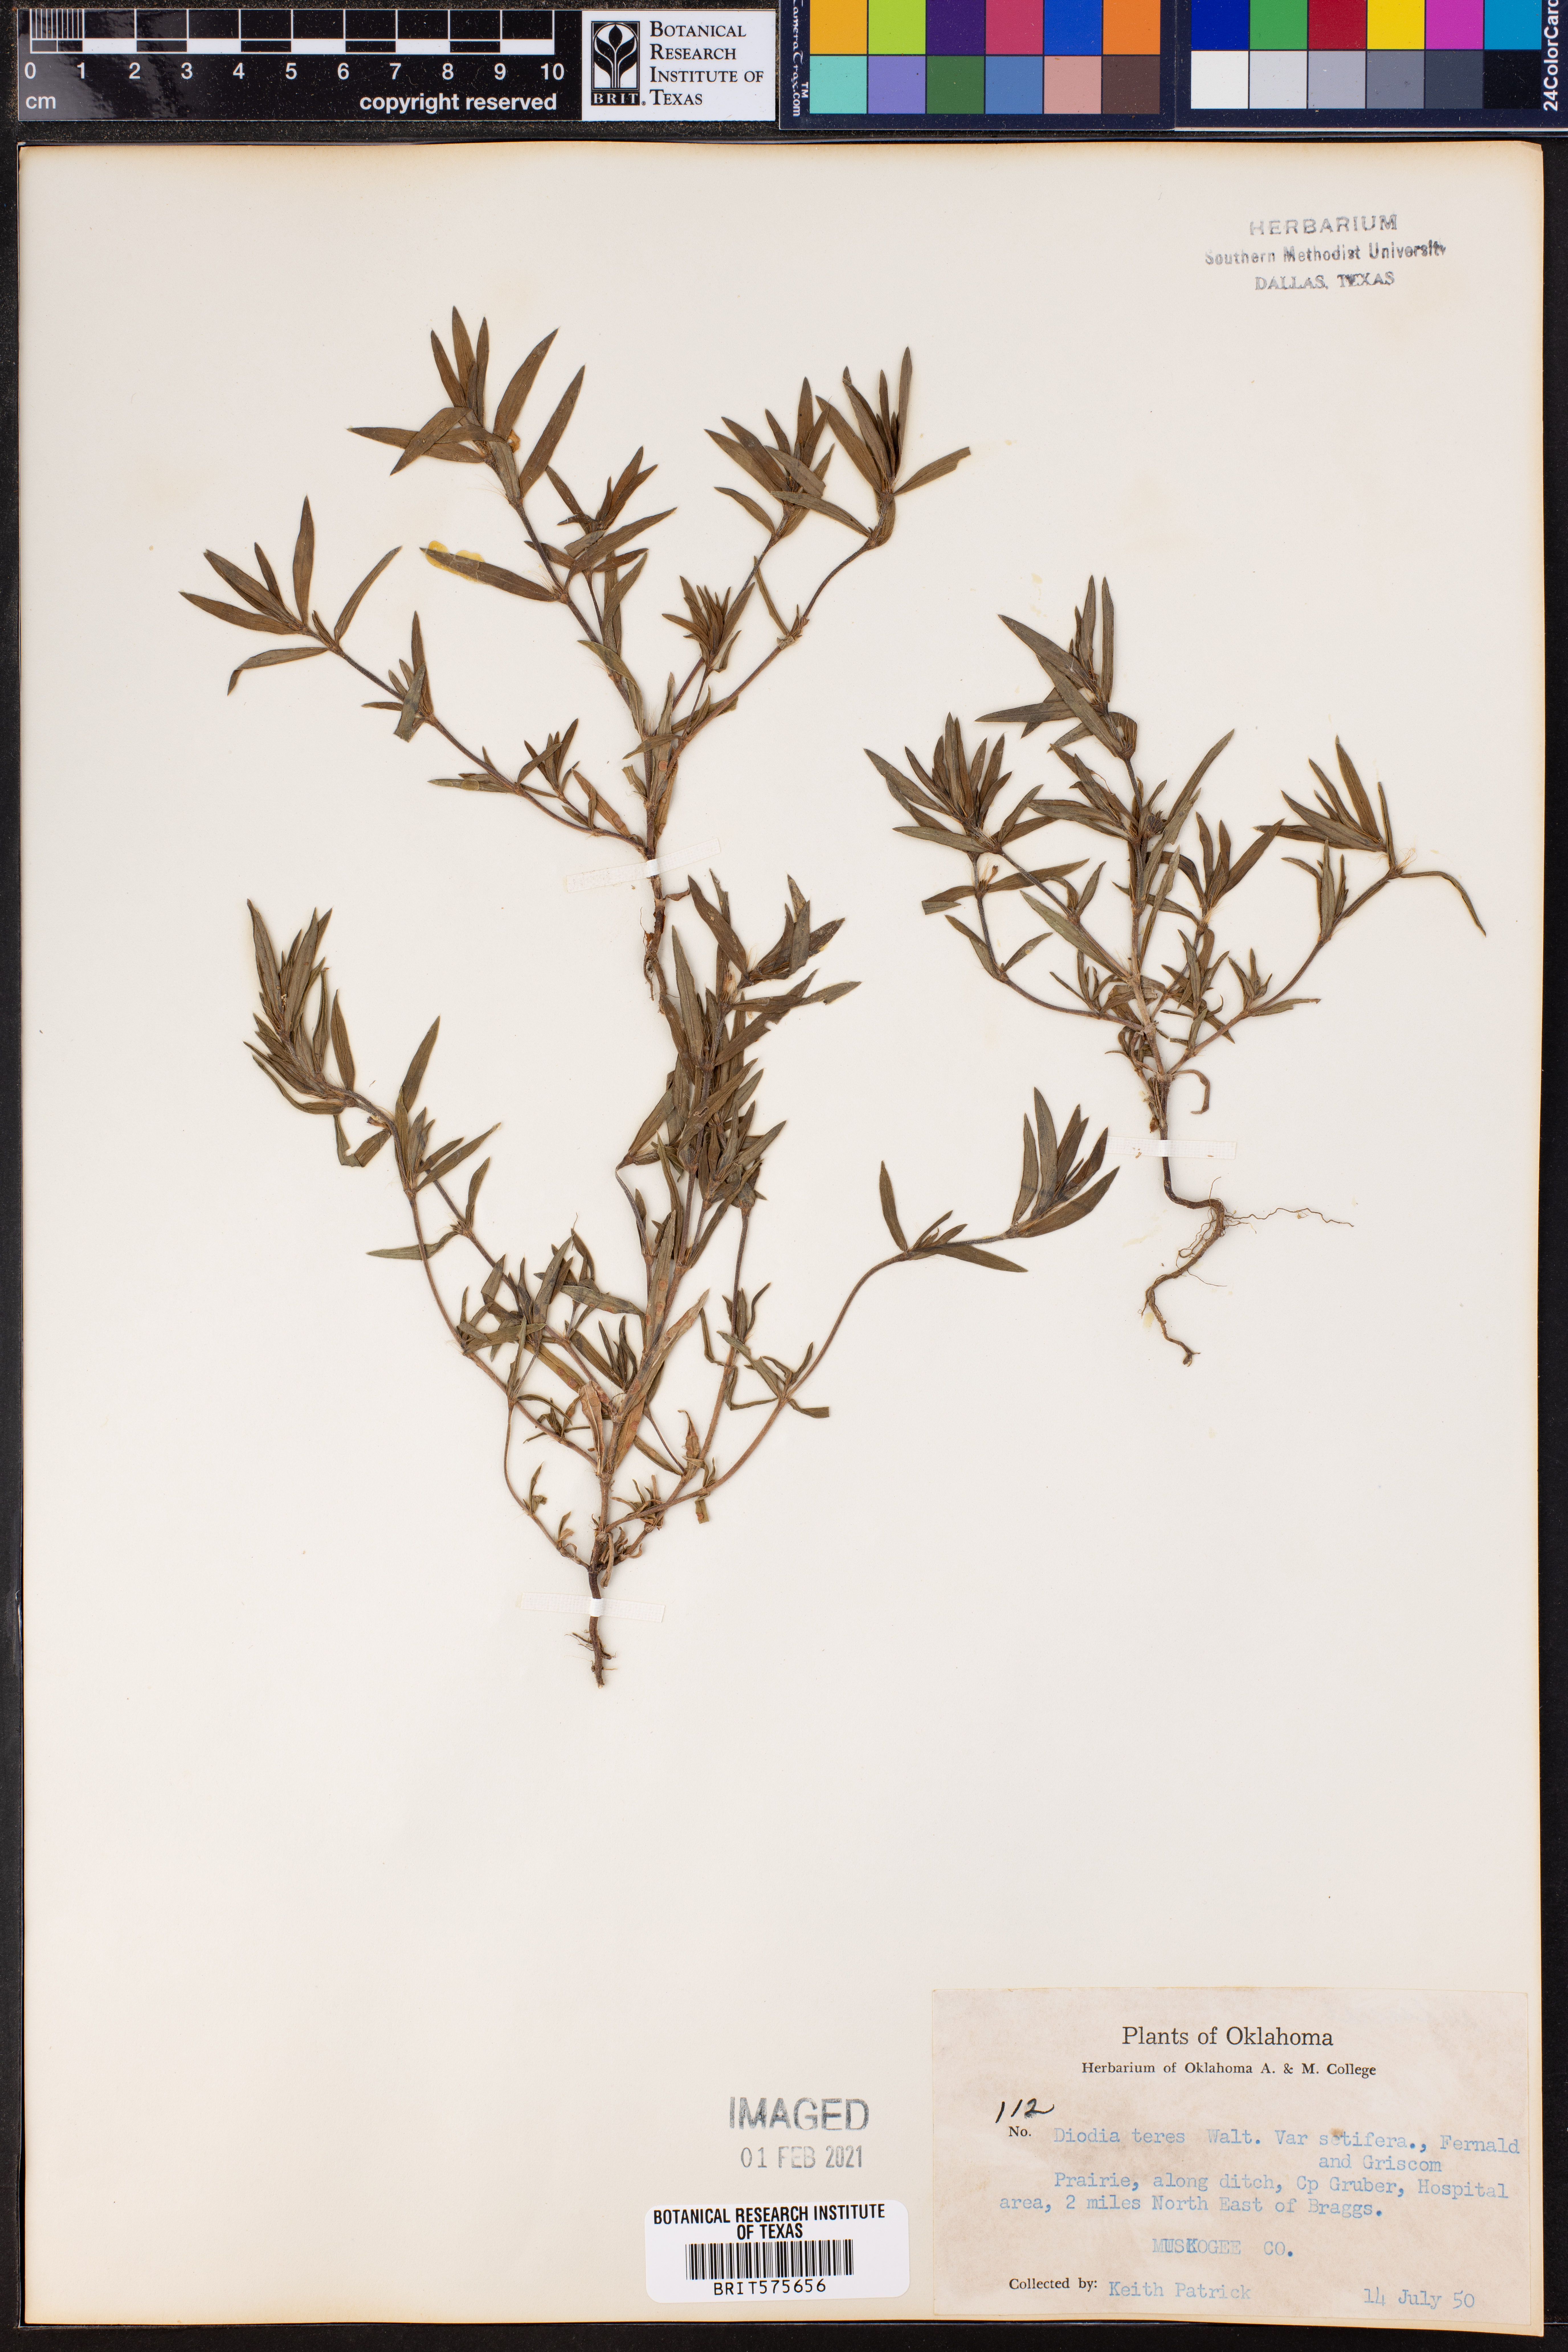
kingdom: Plantae
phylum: Tracheophyta
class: Magnoliopsida
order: Gentianales
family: Rubiaceae
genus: Hexasepalum
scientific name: Hexasepalum teres
